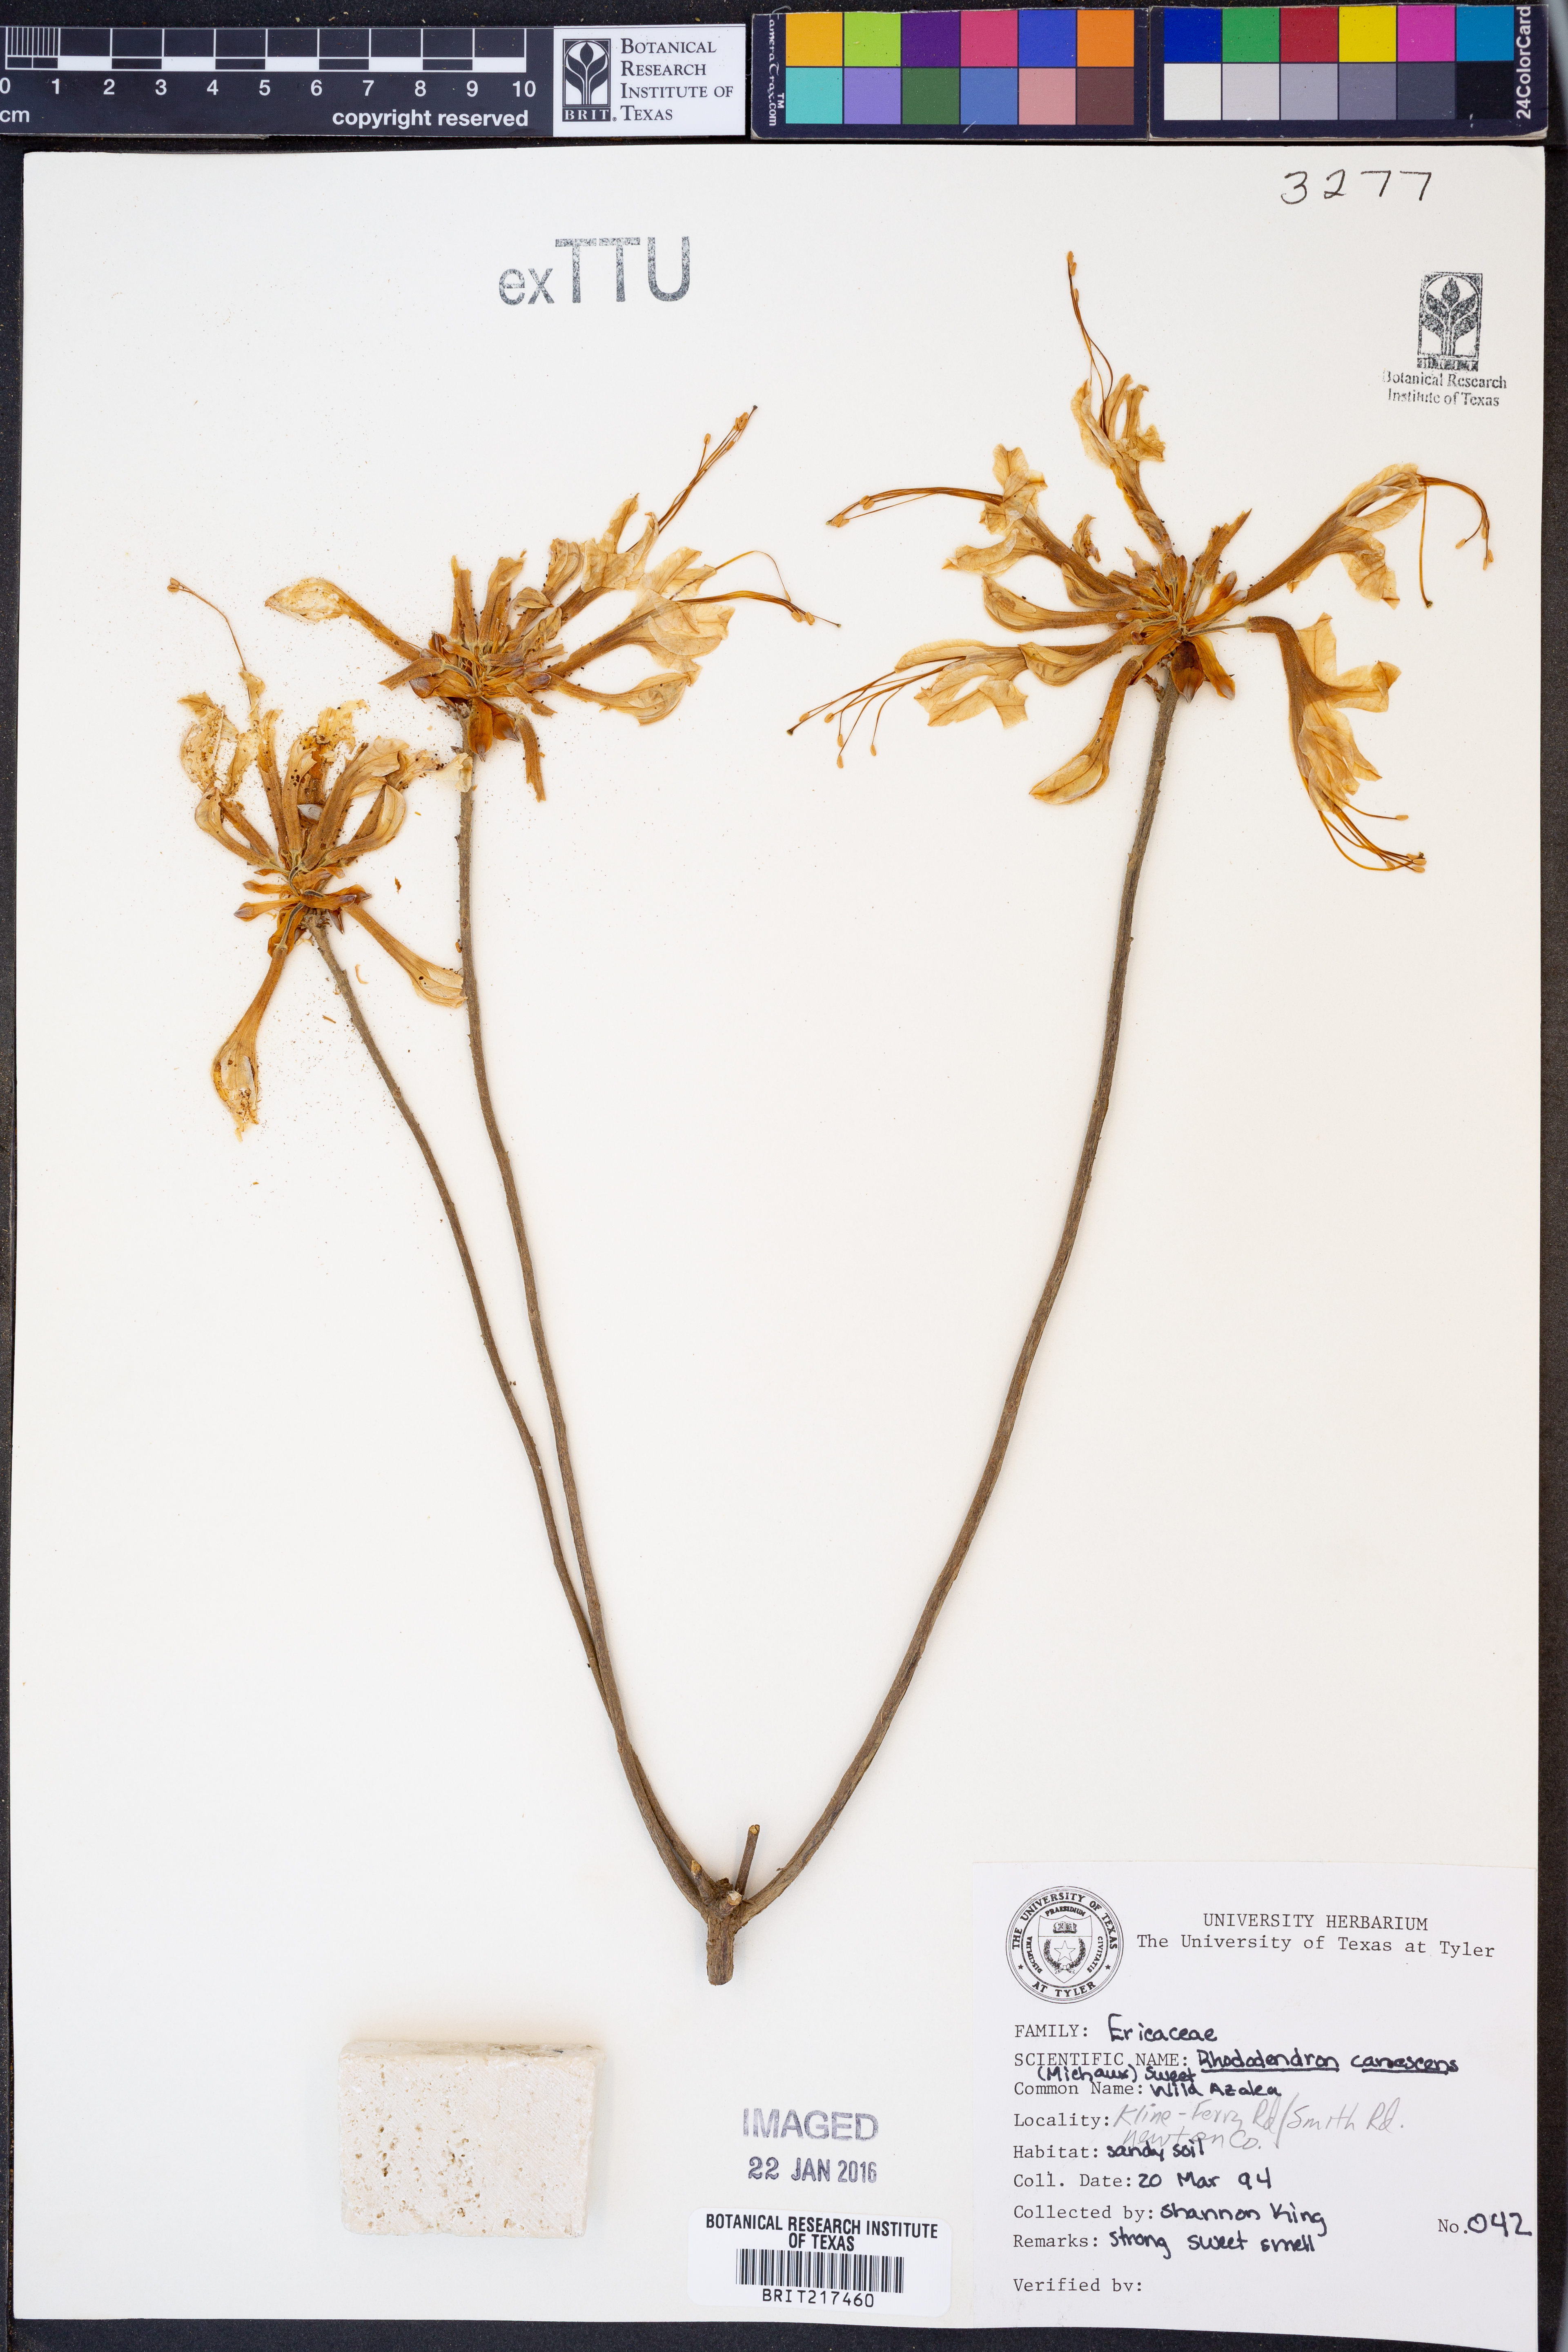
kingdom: Plantae
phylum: Tracheophyta
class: Magnoliopsida
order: Ericales
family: Ericaceae
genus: Rhododendron
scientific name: Rhododendron canescens
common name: Mountain azalea
